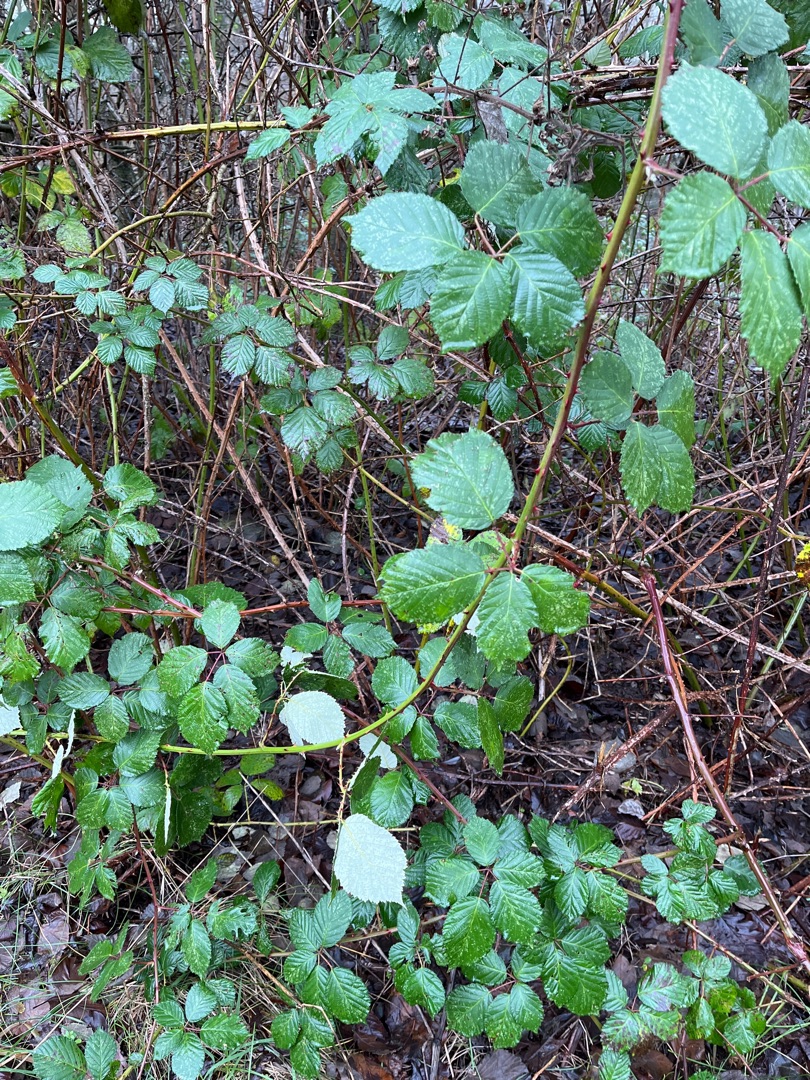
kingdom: Plantae
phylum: Tracheophyta
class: Magnoliopsida
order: Rosales
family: Rosaceae
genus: Rubus
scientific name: Rubus armeniacus
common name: Armensk brombær
